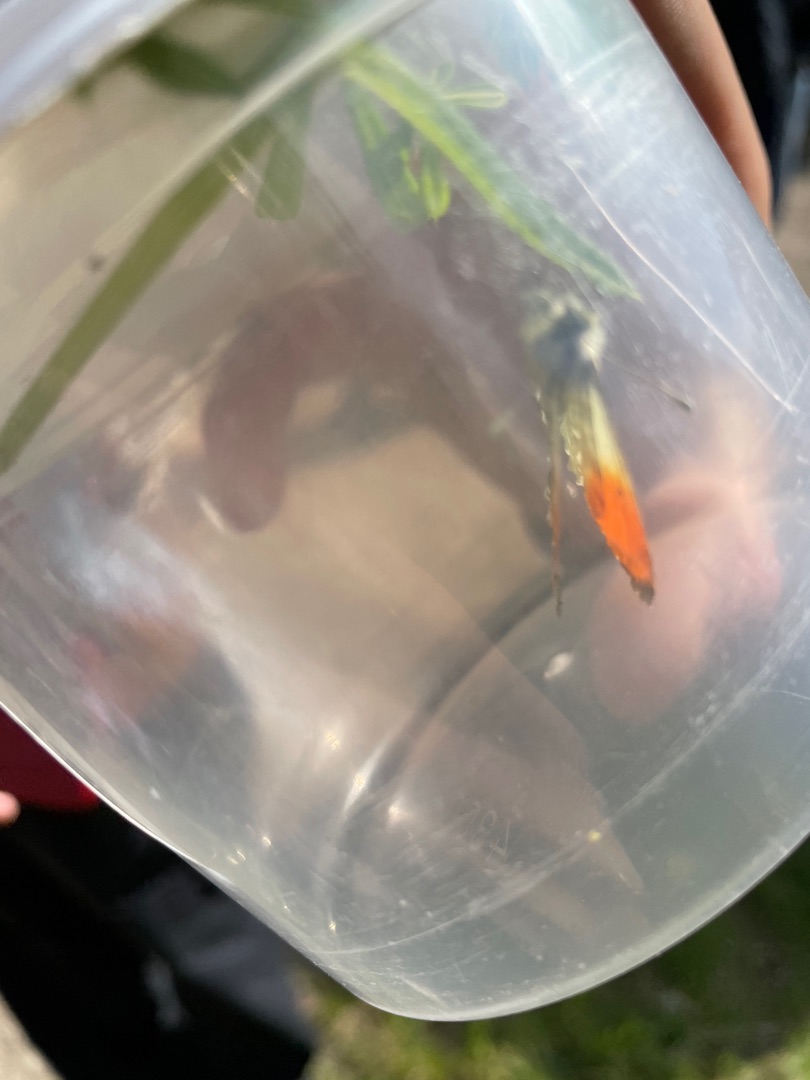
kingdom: Animalia
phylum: Arthropoda
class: Insecta
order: Lepidoptera
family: Pieridae
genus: Anthocharis
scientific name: Anthocharis cardamines
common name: Aurora
